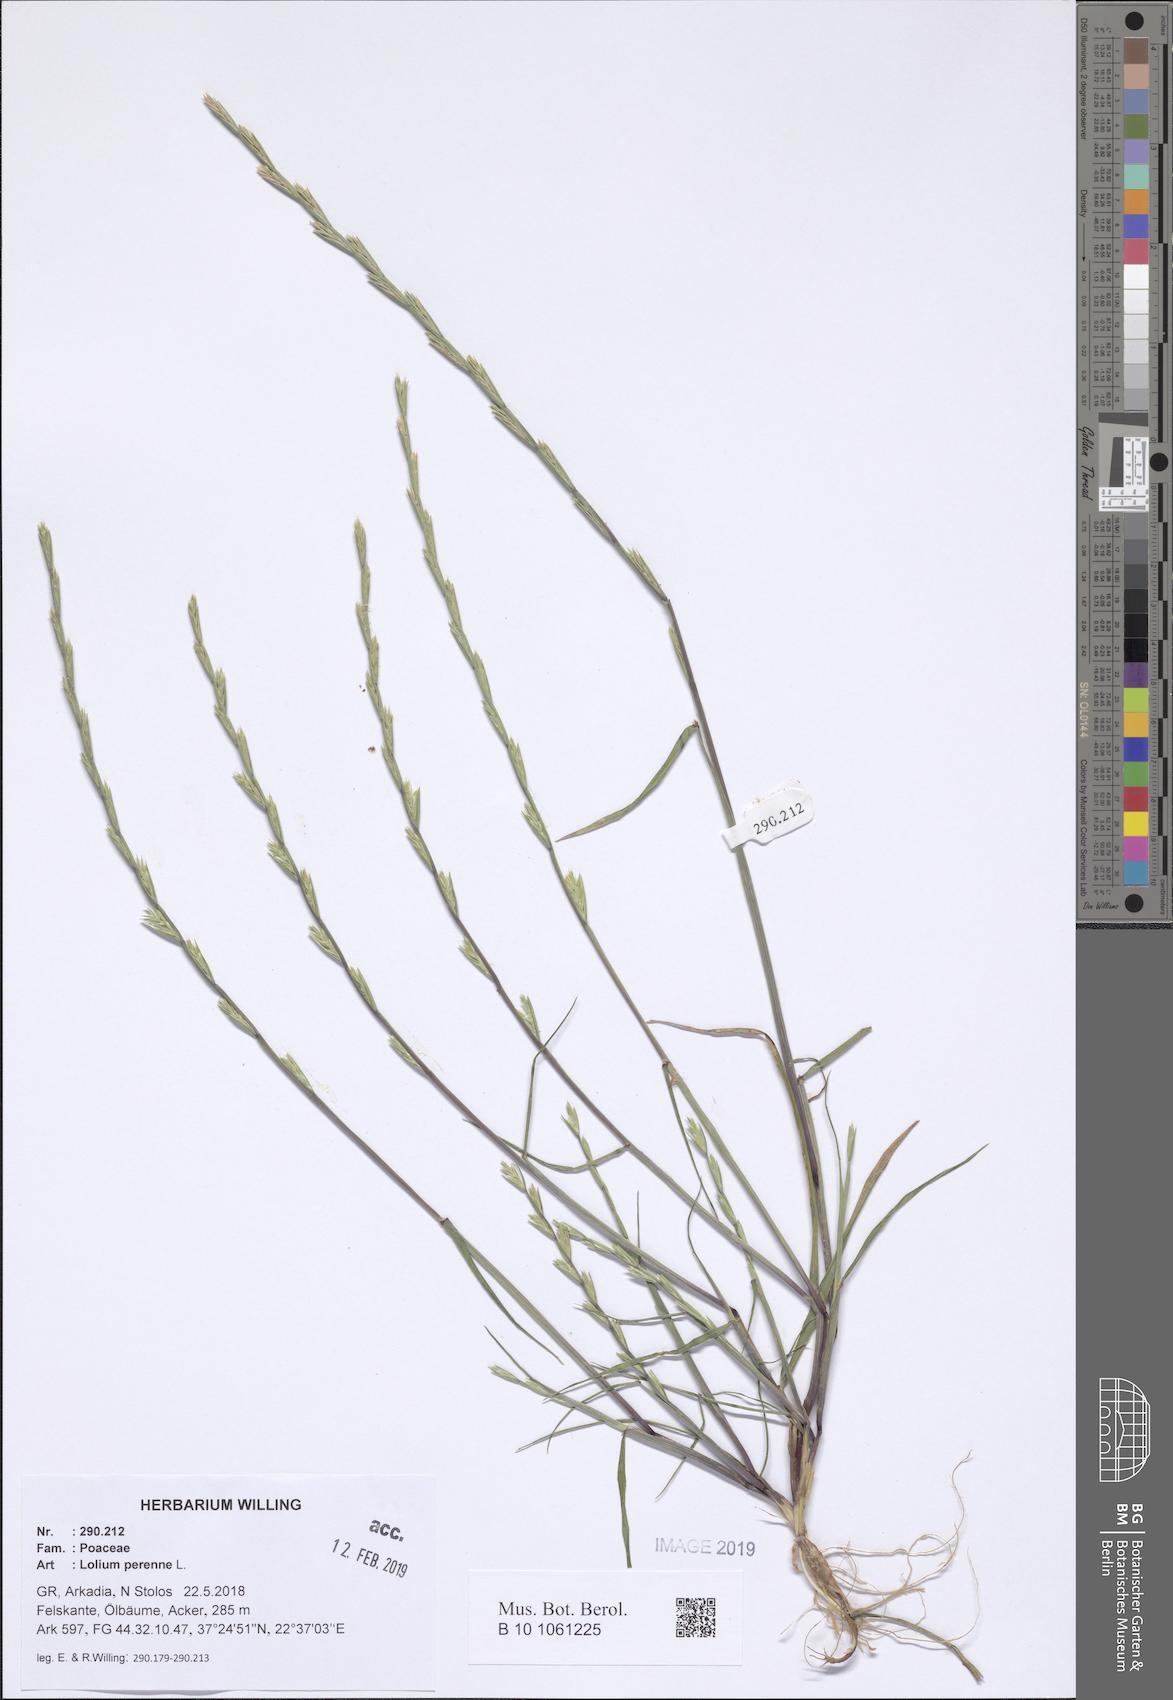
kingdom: Plantae
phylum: Tracheophyta
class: Liliopsida
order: Poales
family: Poaceae
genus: Lolium
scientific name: Lolium perenne
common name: Perennial ryegrass
